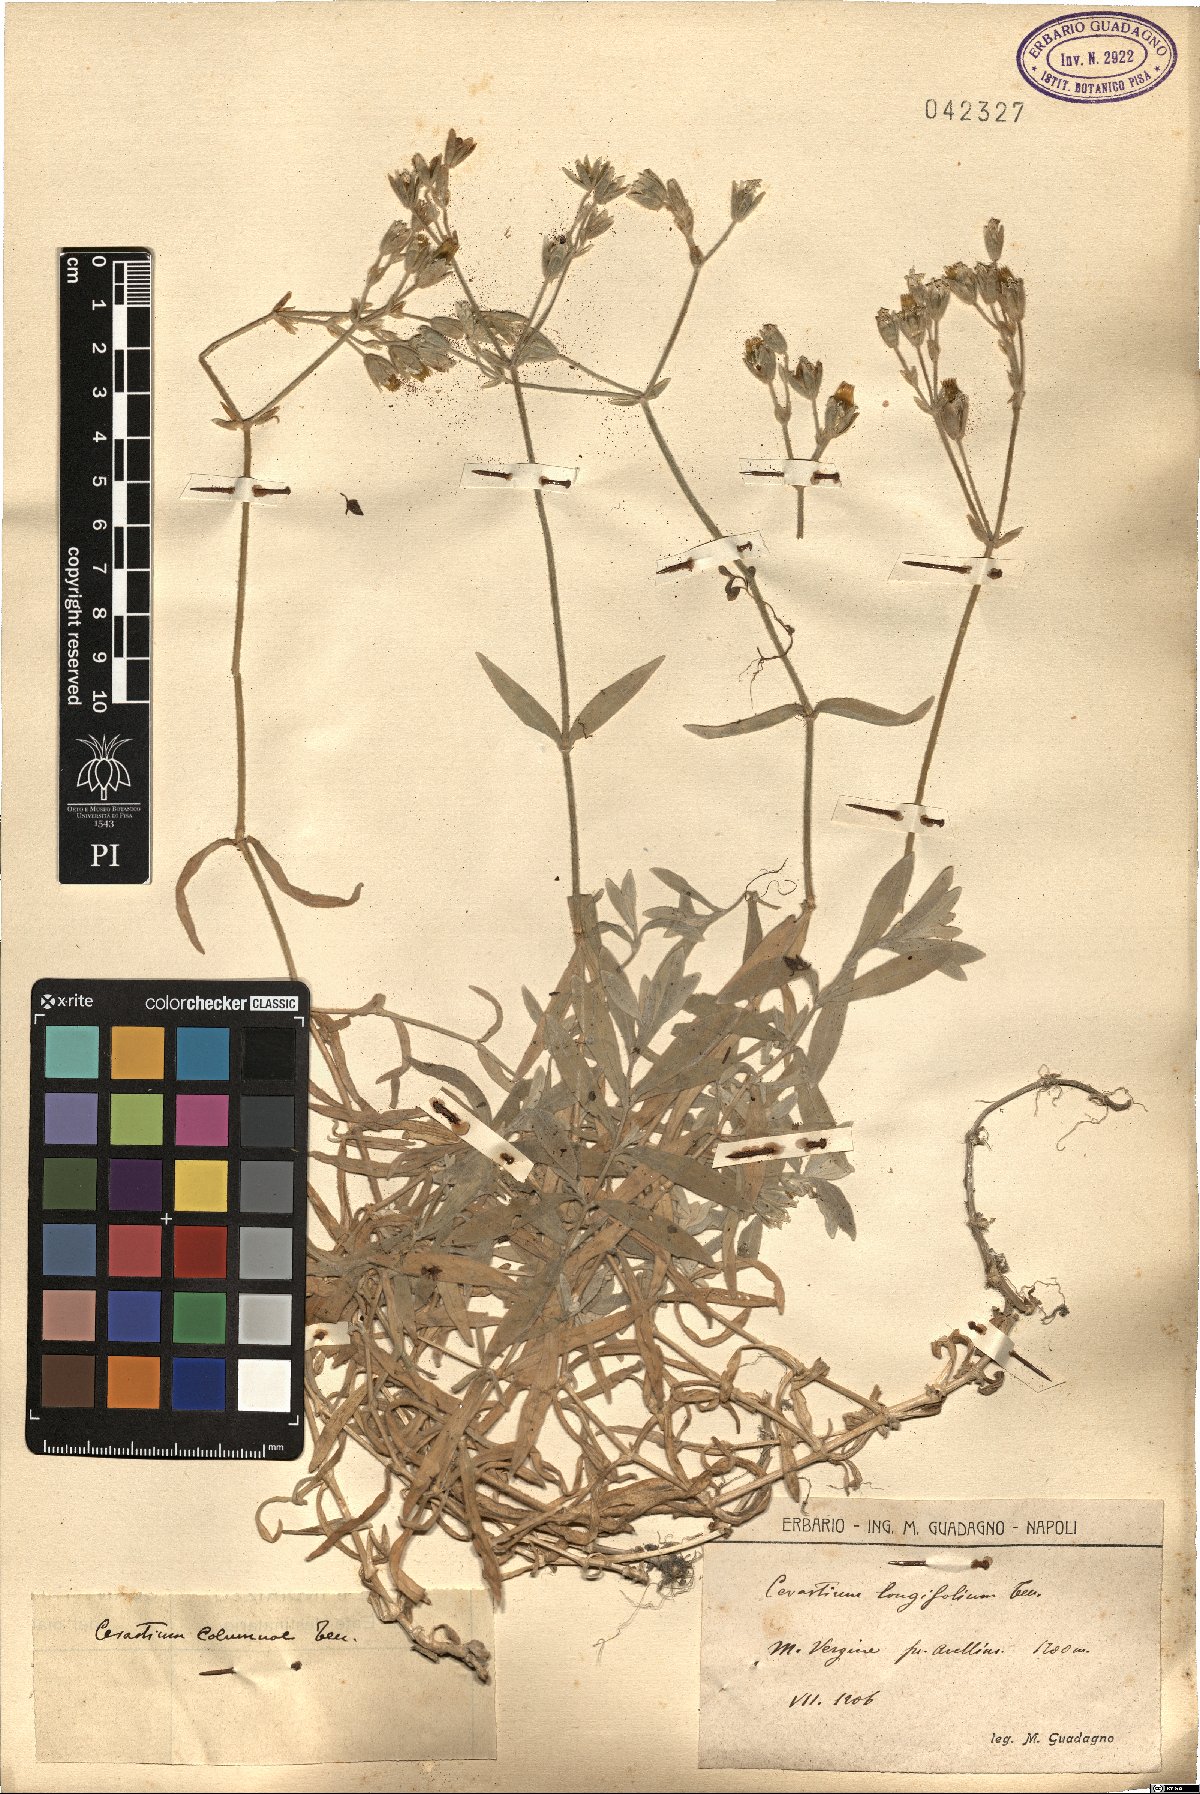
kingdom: Plantae
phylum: Tracheophyta
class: Magnoliopsida
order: Caryophyllales
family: Caryophyllaceae
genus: Cerastium
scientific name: Cerastium tomentosum
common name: Snow-in-summer
